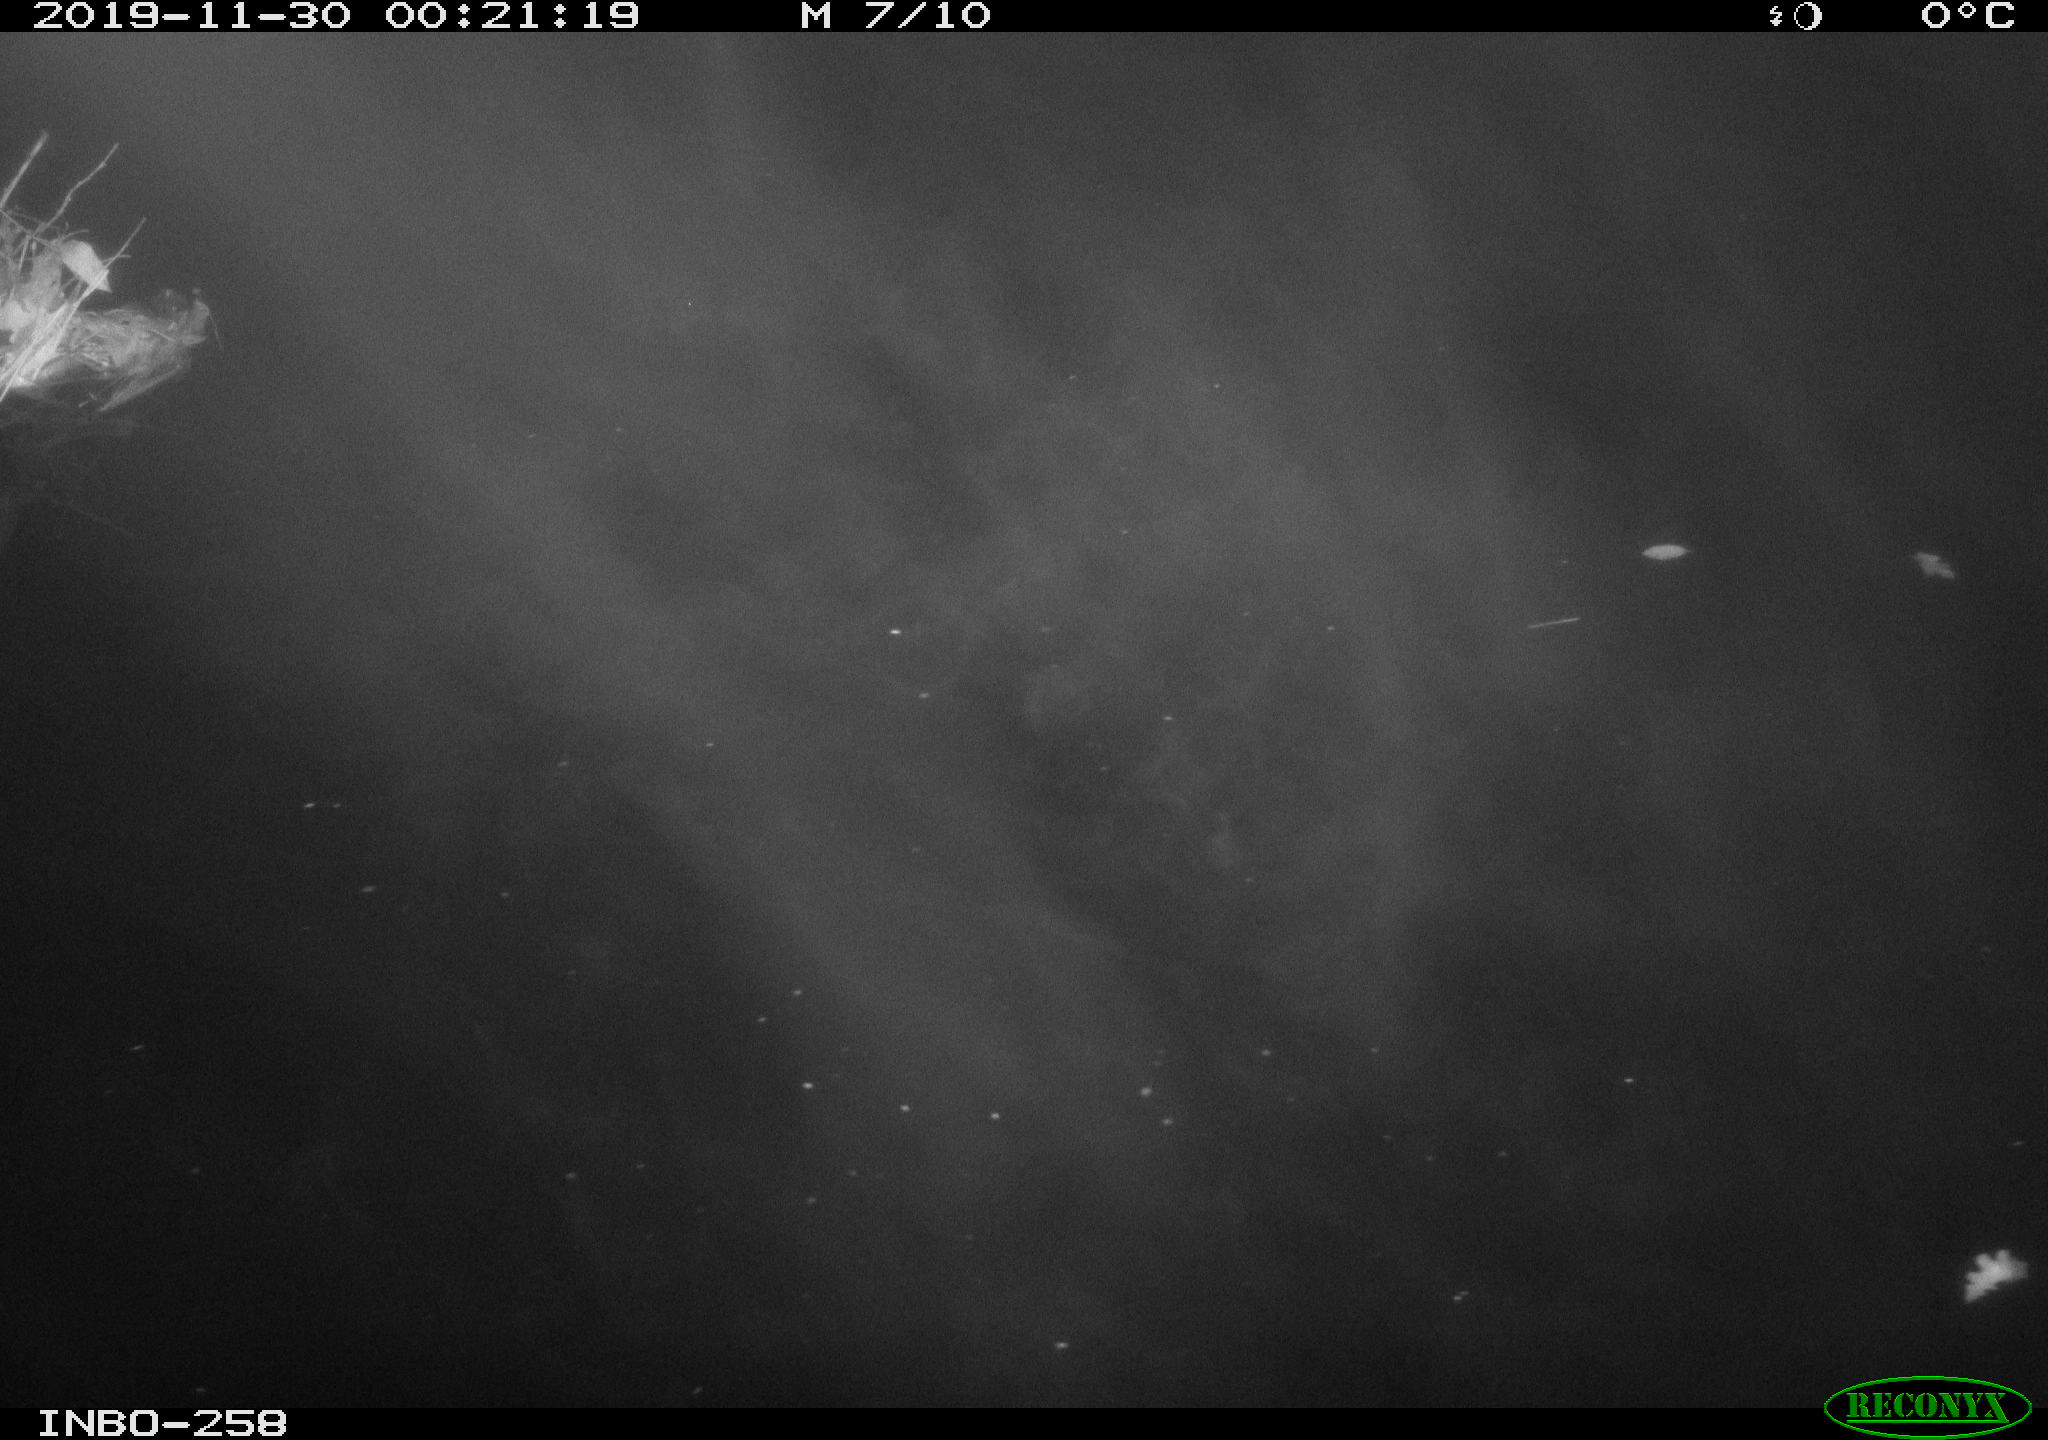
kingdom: Animalia
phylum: Chordata
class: Aves
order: Anseriformes
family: Anatidae
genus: Anas
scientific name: Anas platyrhynchos
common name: Mallard
